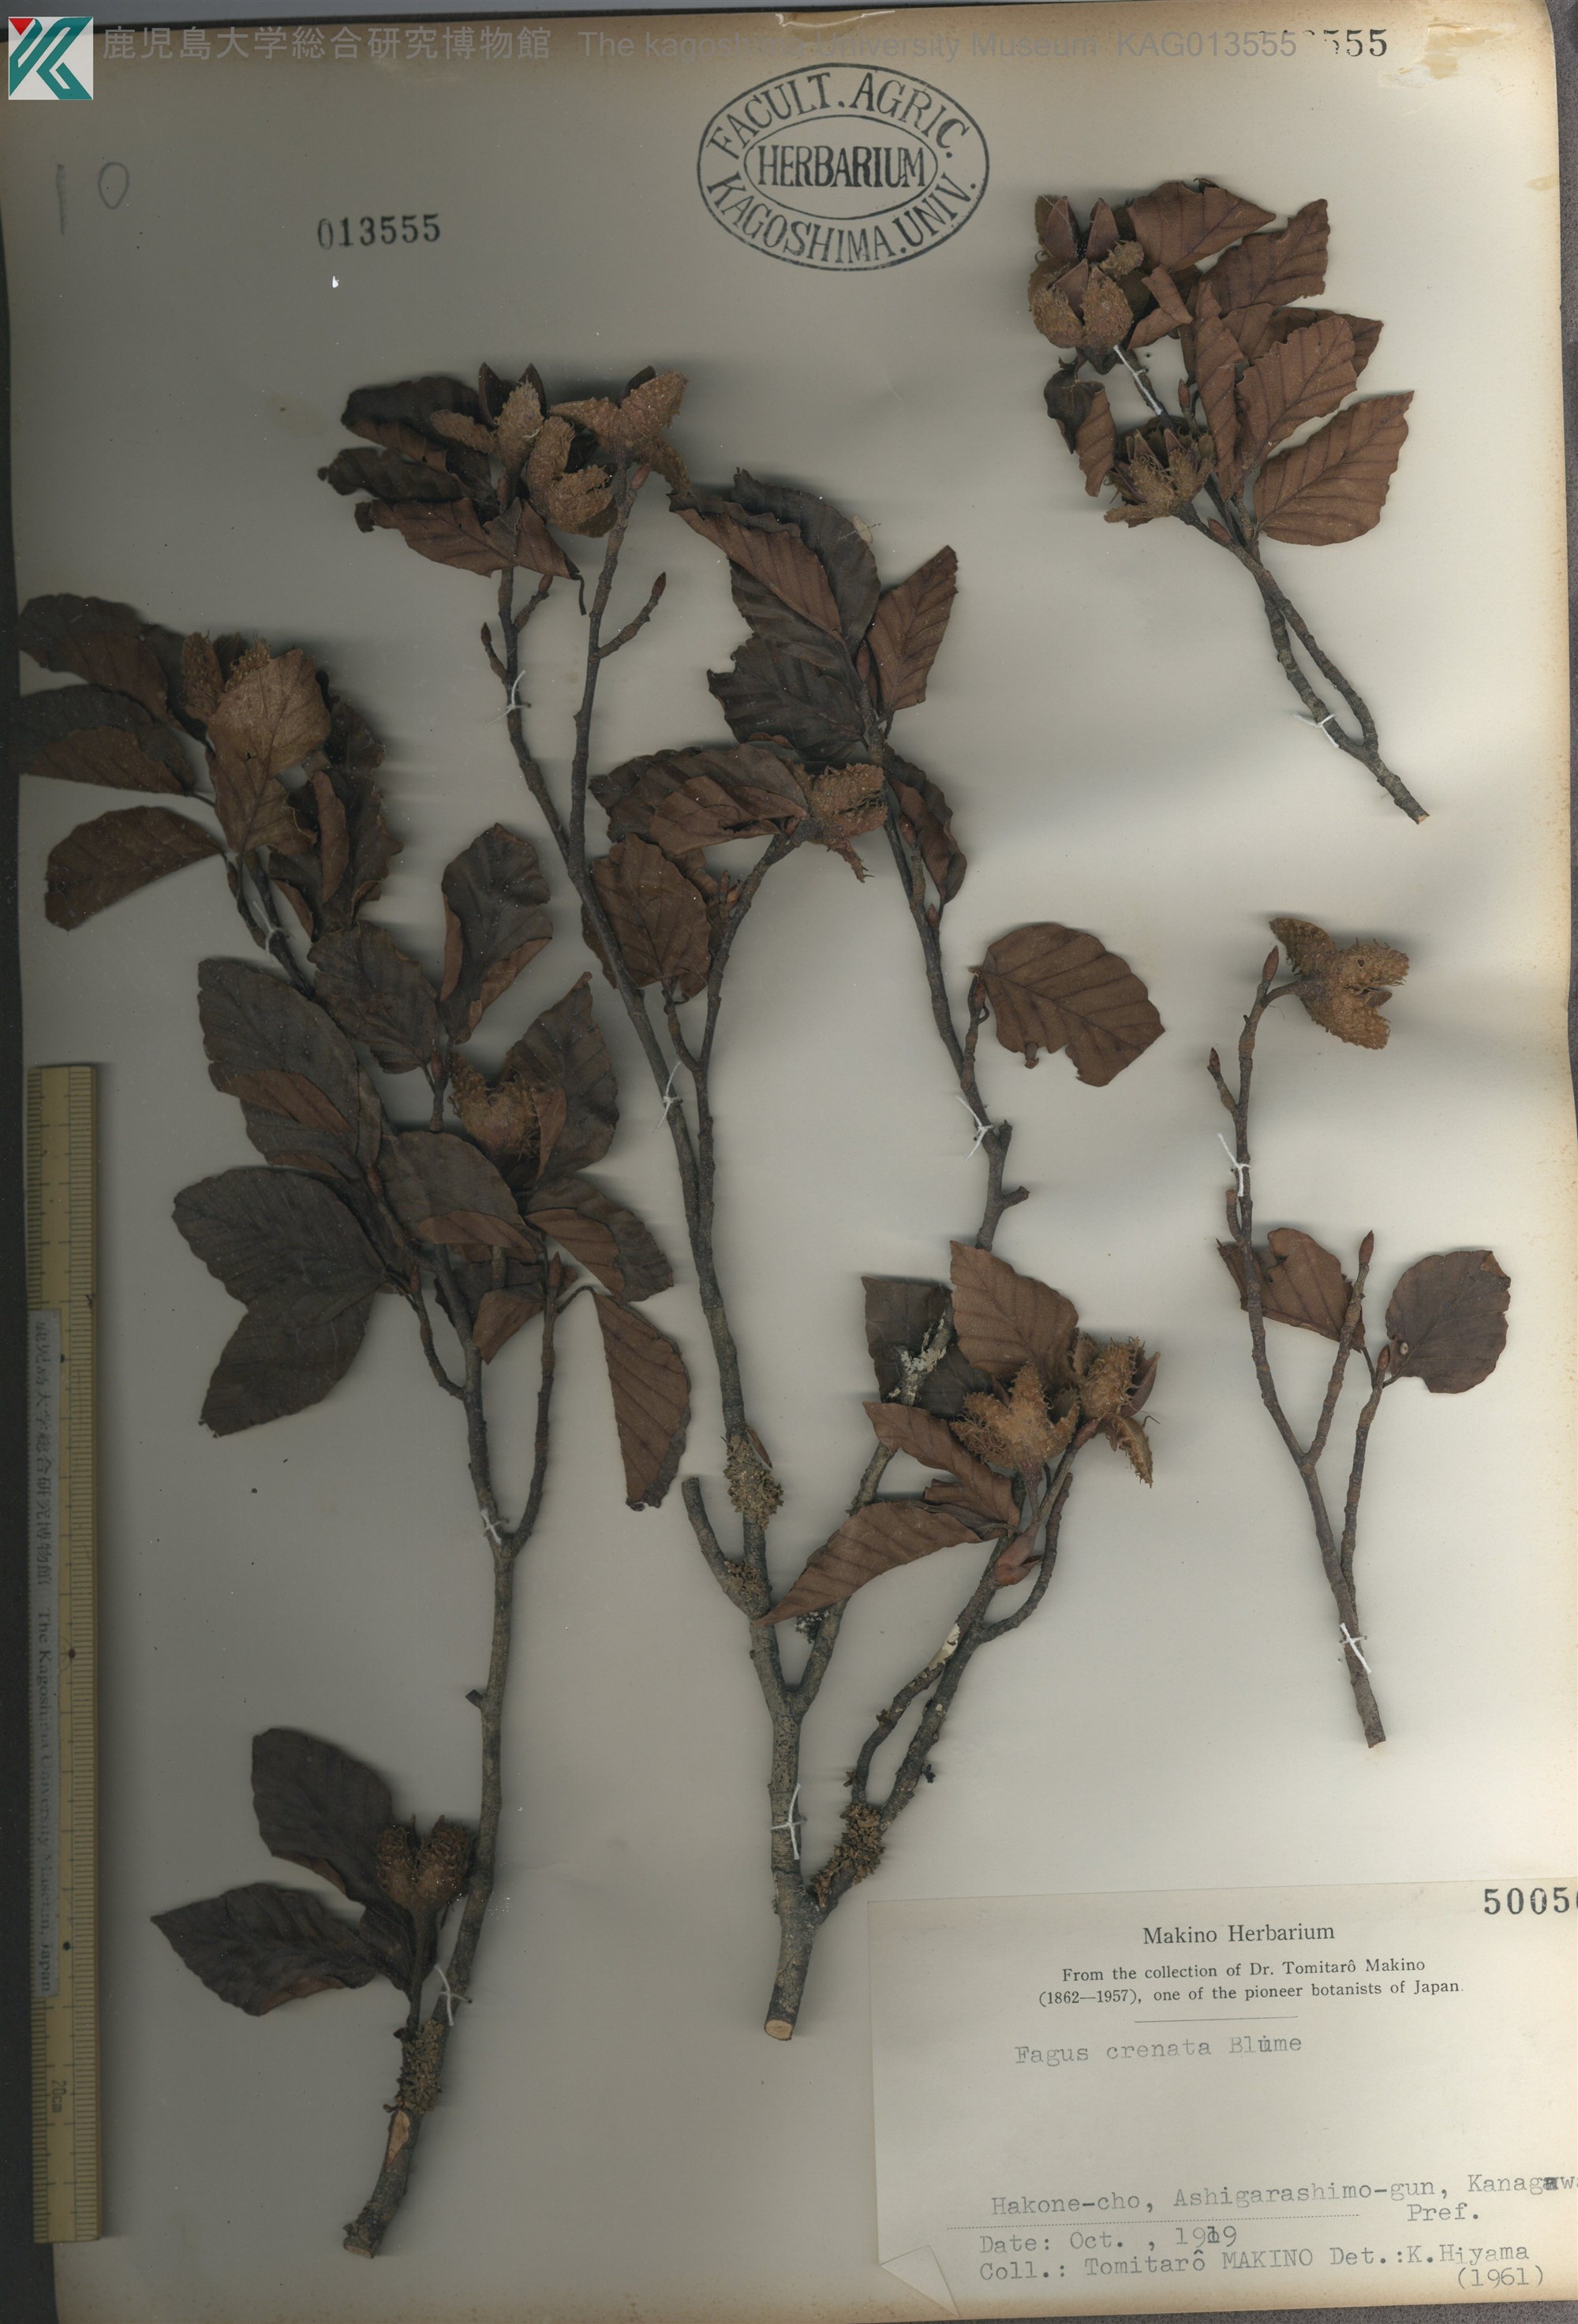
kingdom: Plantae
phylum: Tracheophyta
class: Magnoliopsida
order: Fagales
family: Fagaceae
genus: Fagus
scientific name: Fagus crenata
